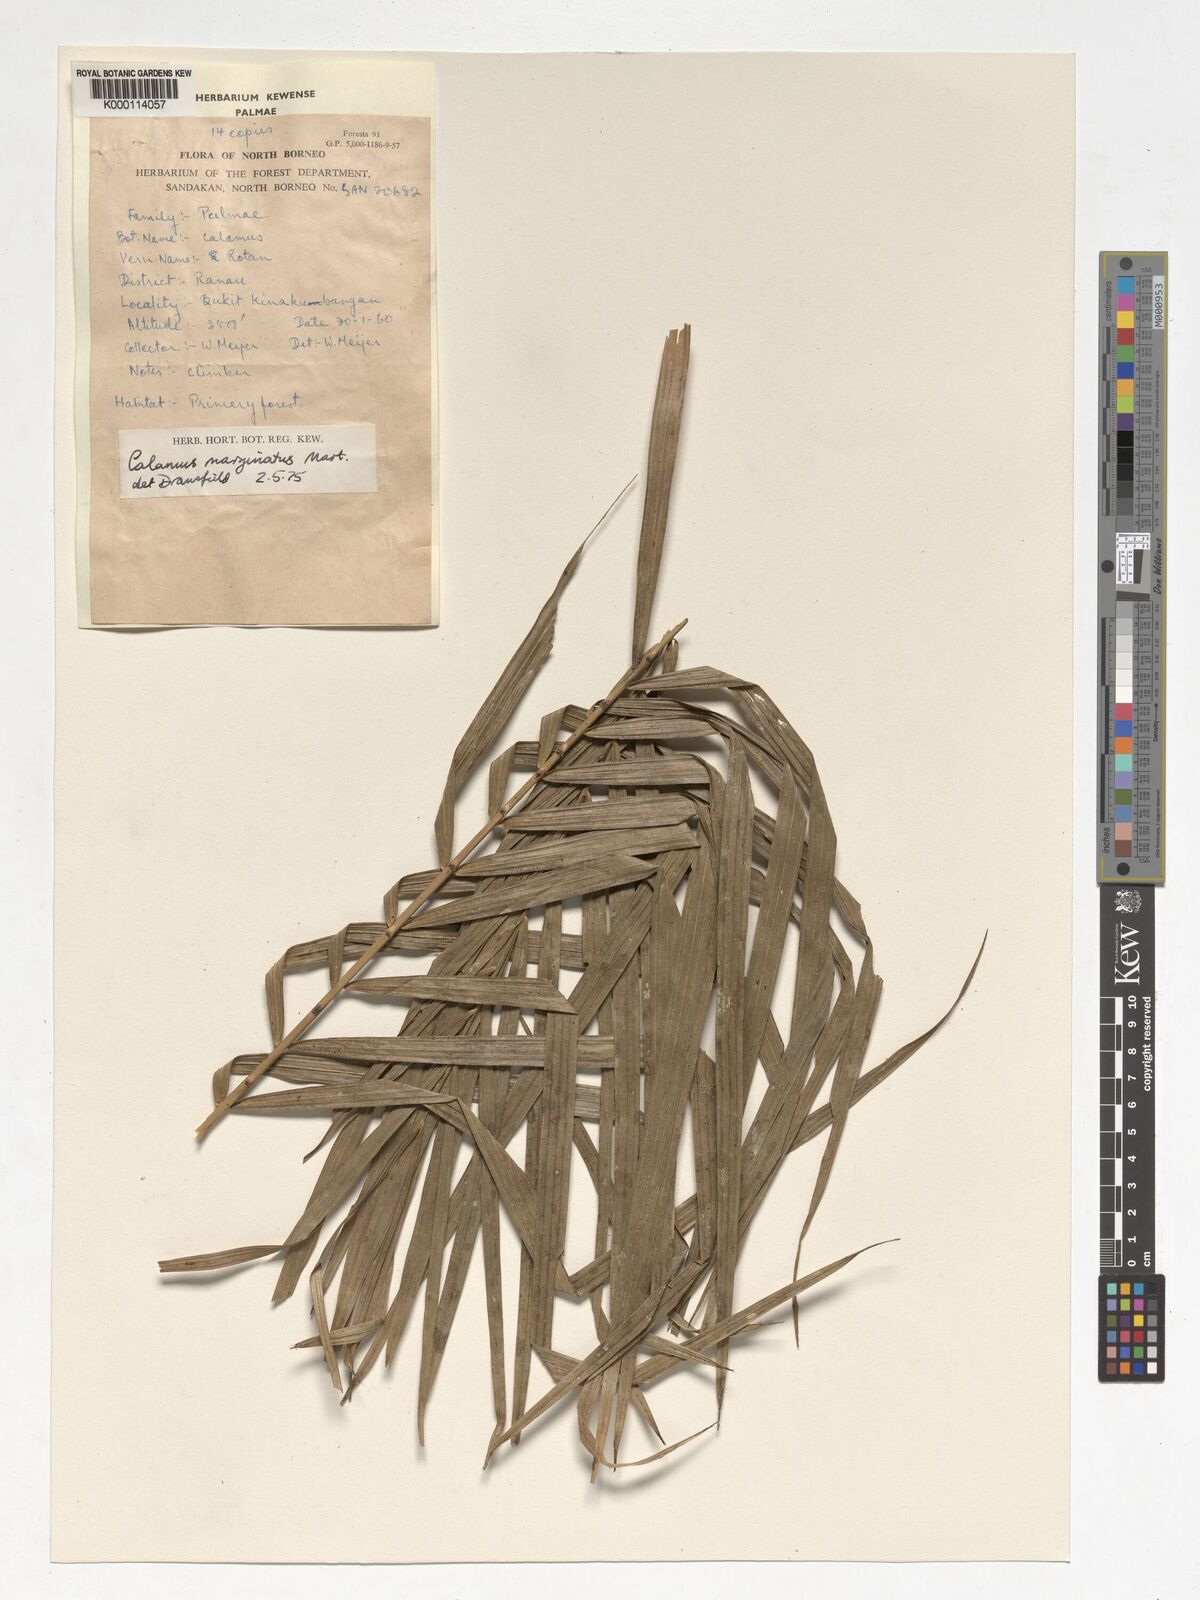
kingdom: Plantae
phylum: Tracheophyta
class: Liliopsida
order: Arecales
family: Arecaceae
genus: Calamus
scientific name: Calamus
